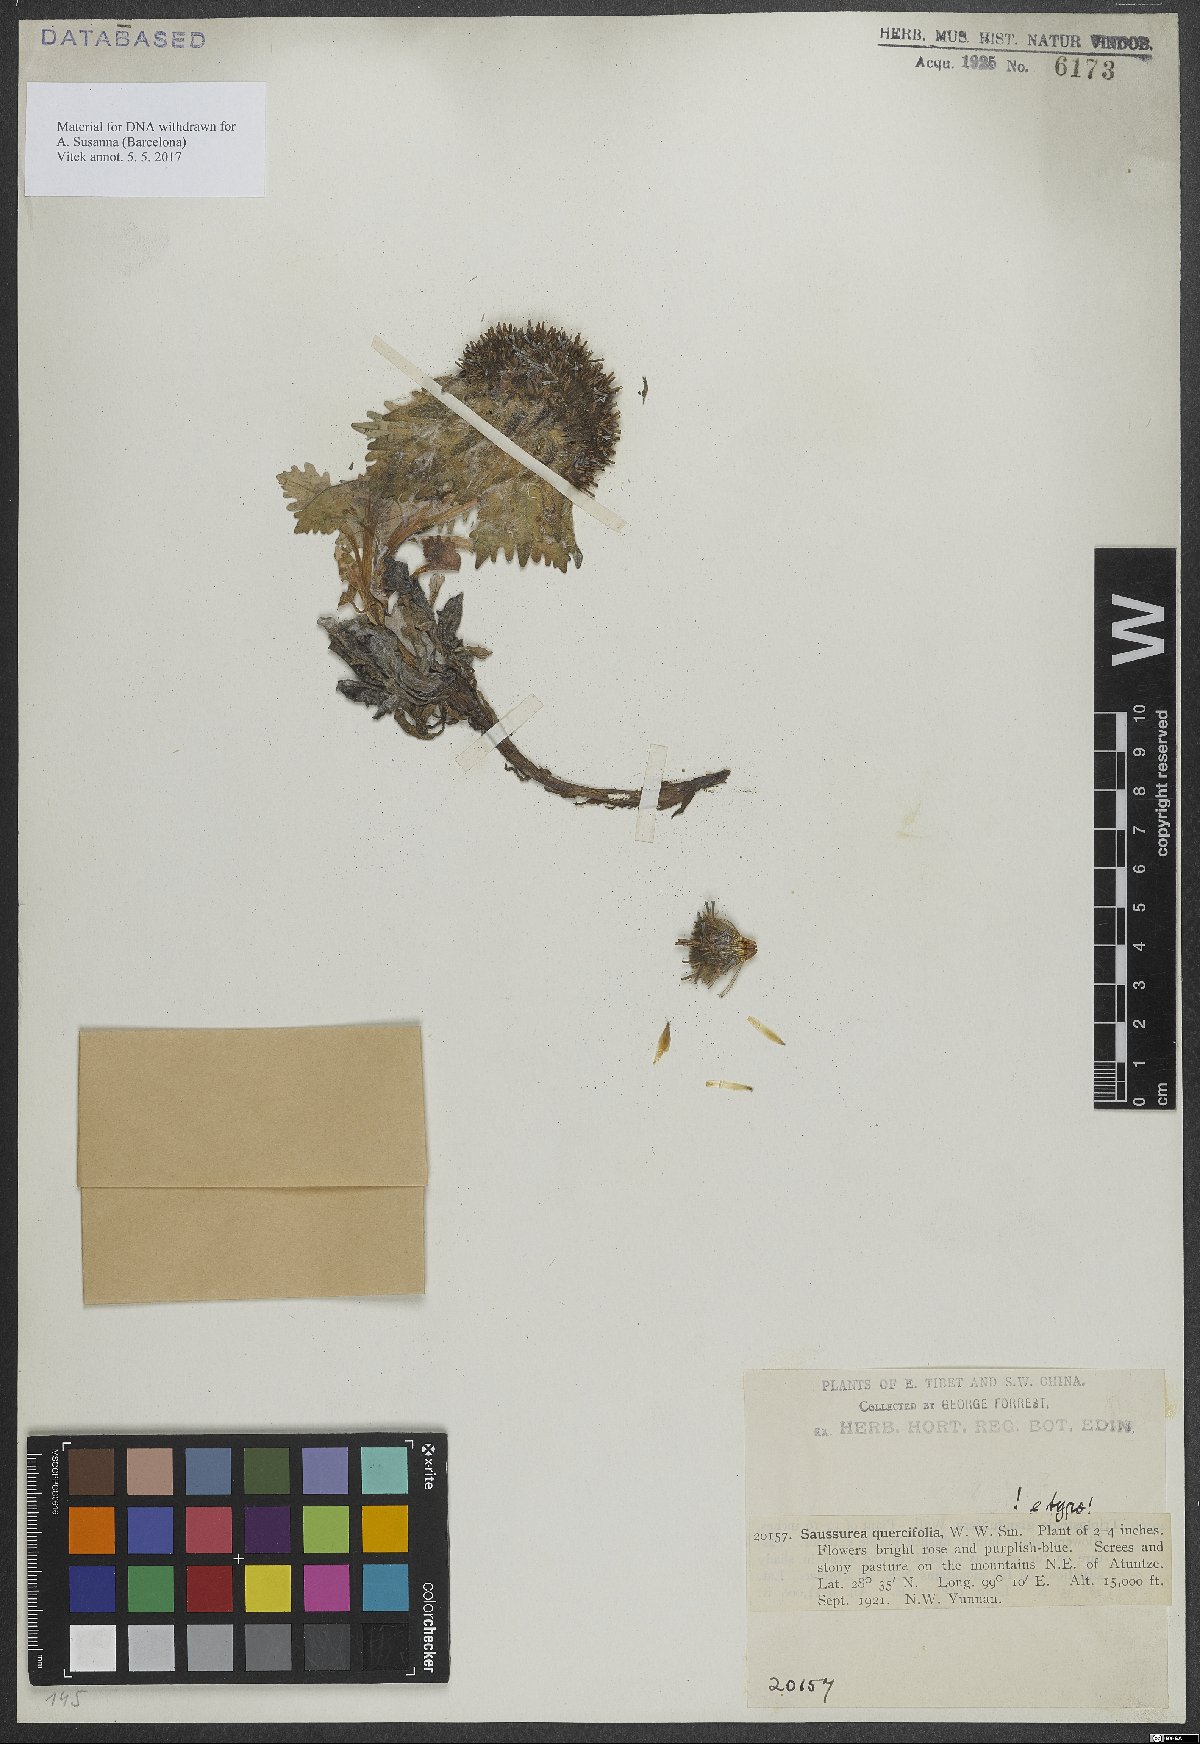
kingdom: Plantae
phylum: Tracheophyta
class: Magnoliopsida
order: Asterales
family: Asteraceae
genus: Saussurea
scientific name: Saussurea quercifolia
